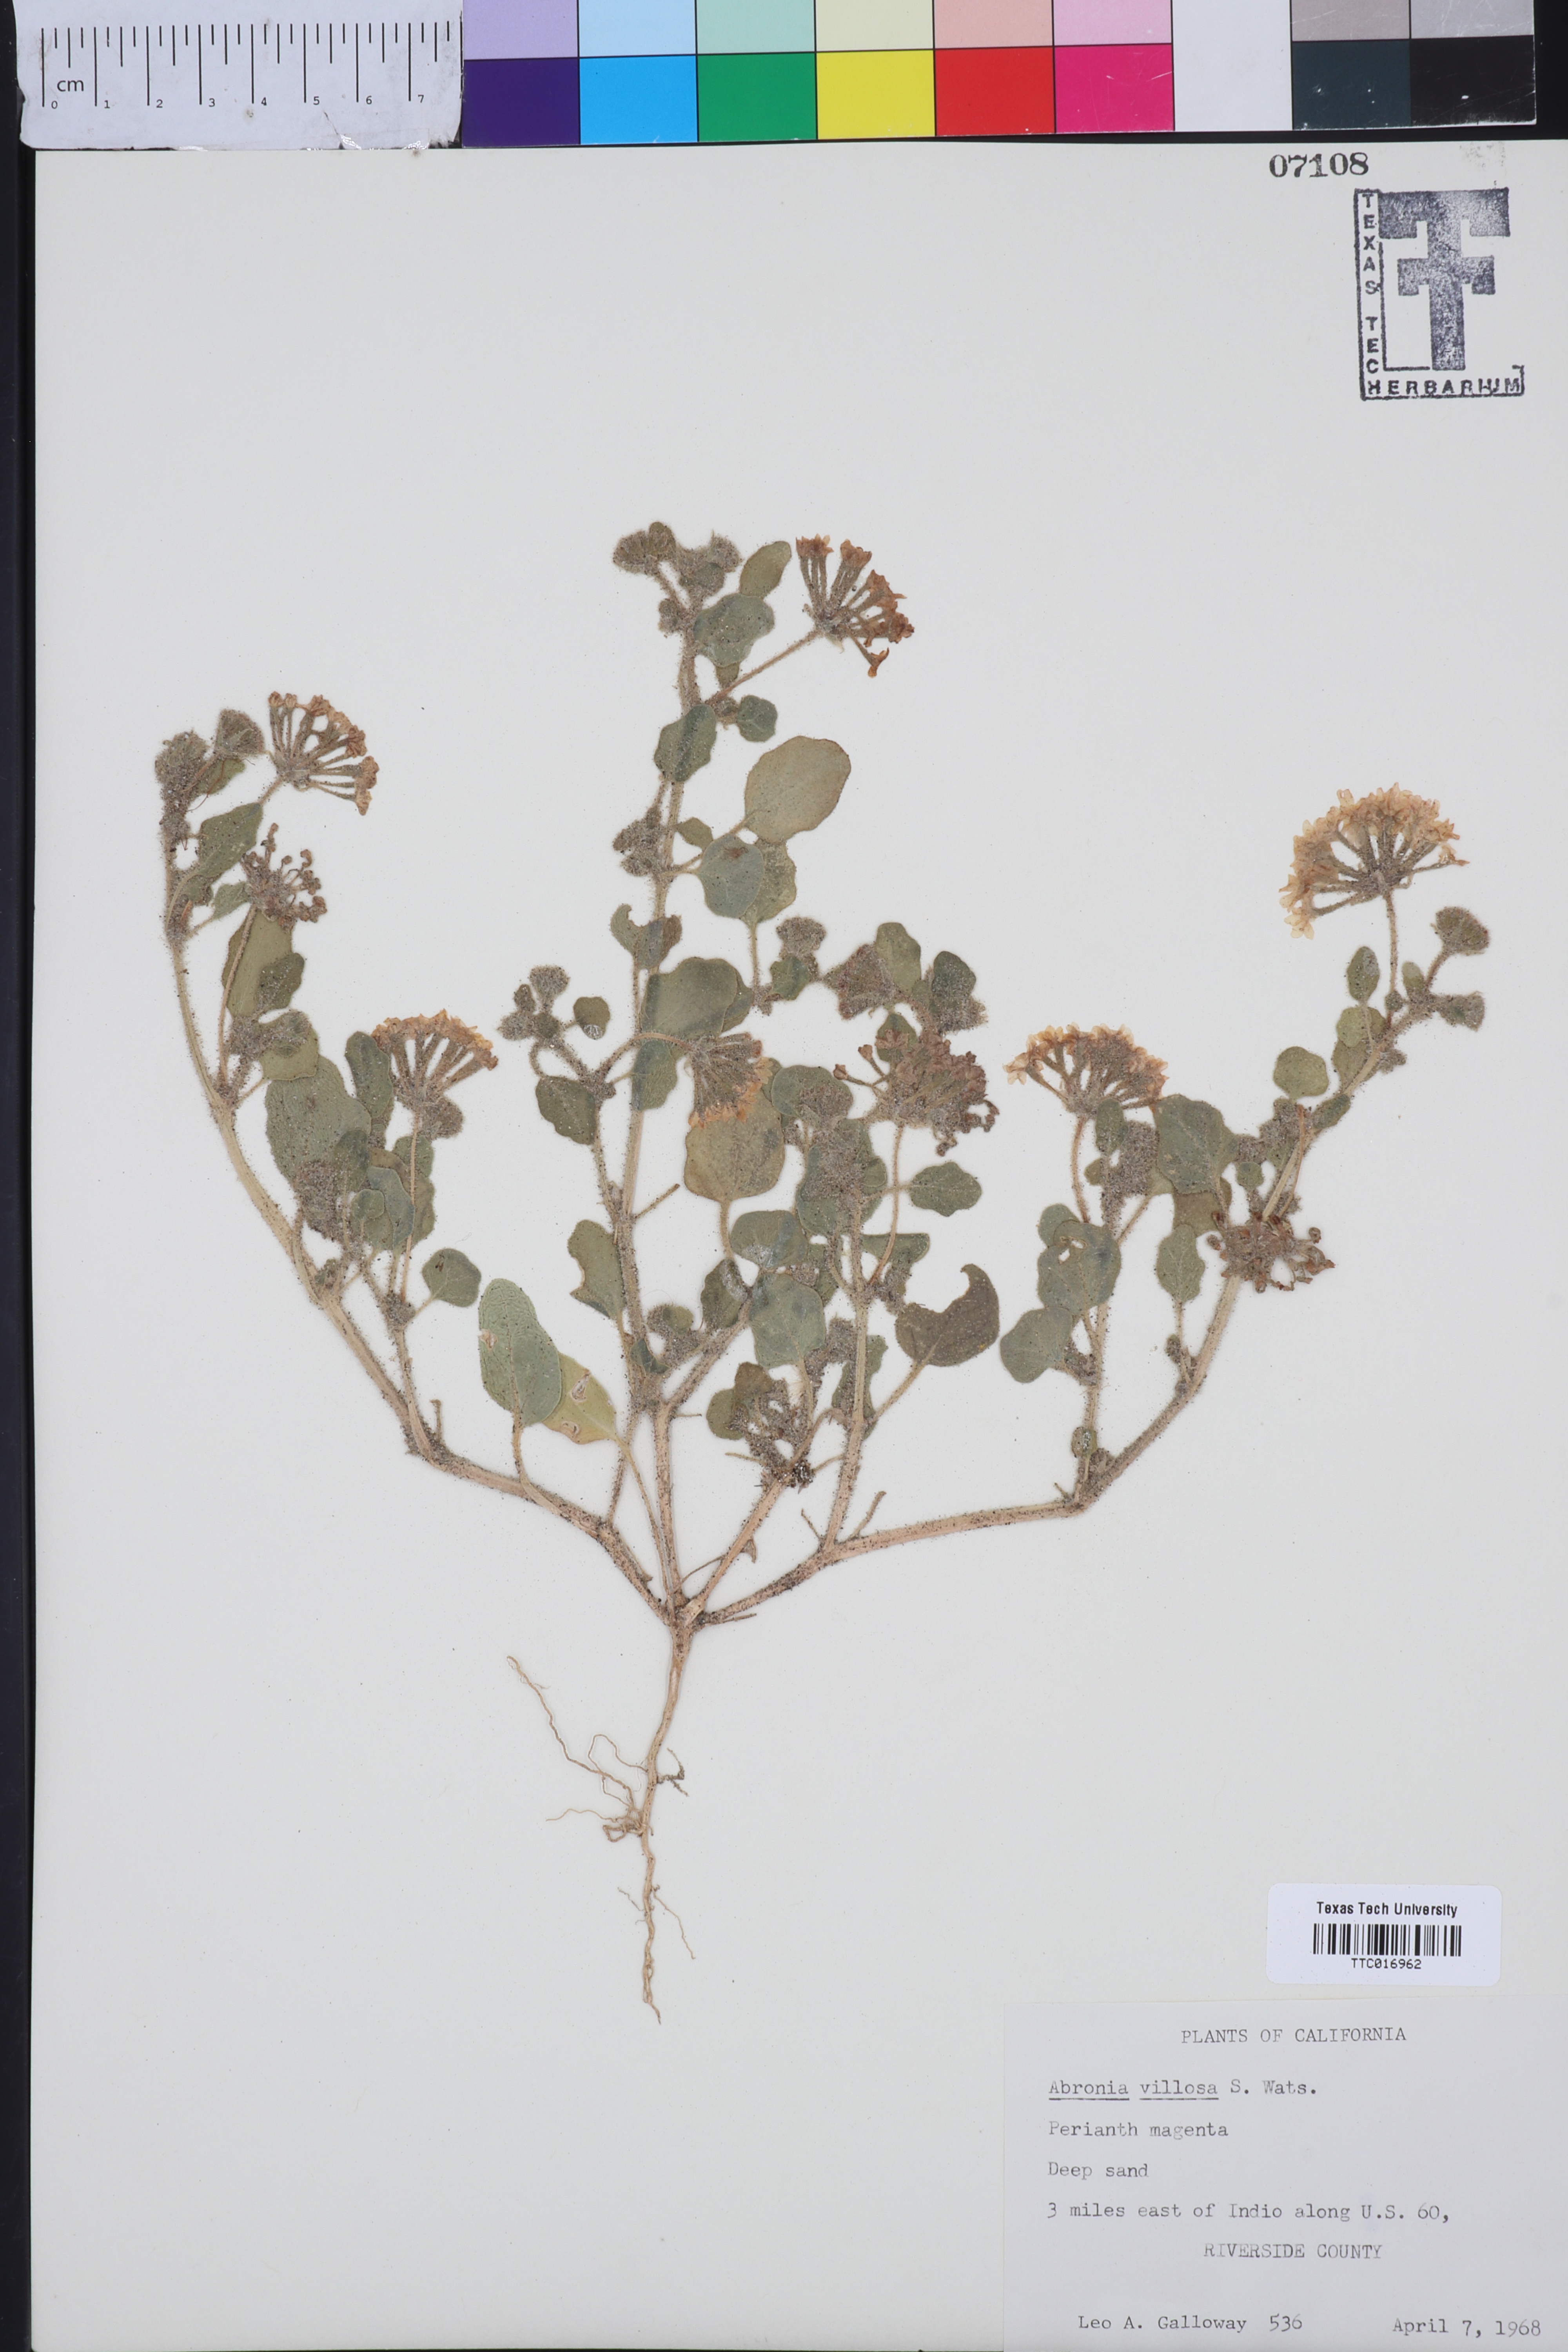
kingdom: Plantae
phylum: Tracheophyta
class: Magnoliopsida
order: Caryophyllales
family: Nyctaginaceae
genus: Abronia
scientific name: Abronia villosa
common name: Desert sand-verbena
